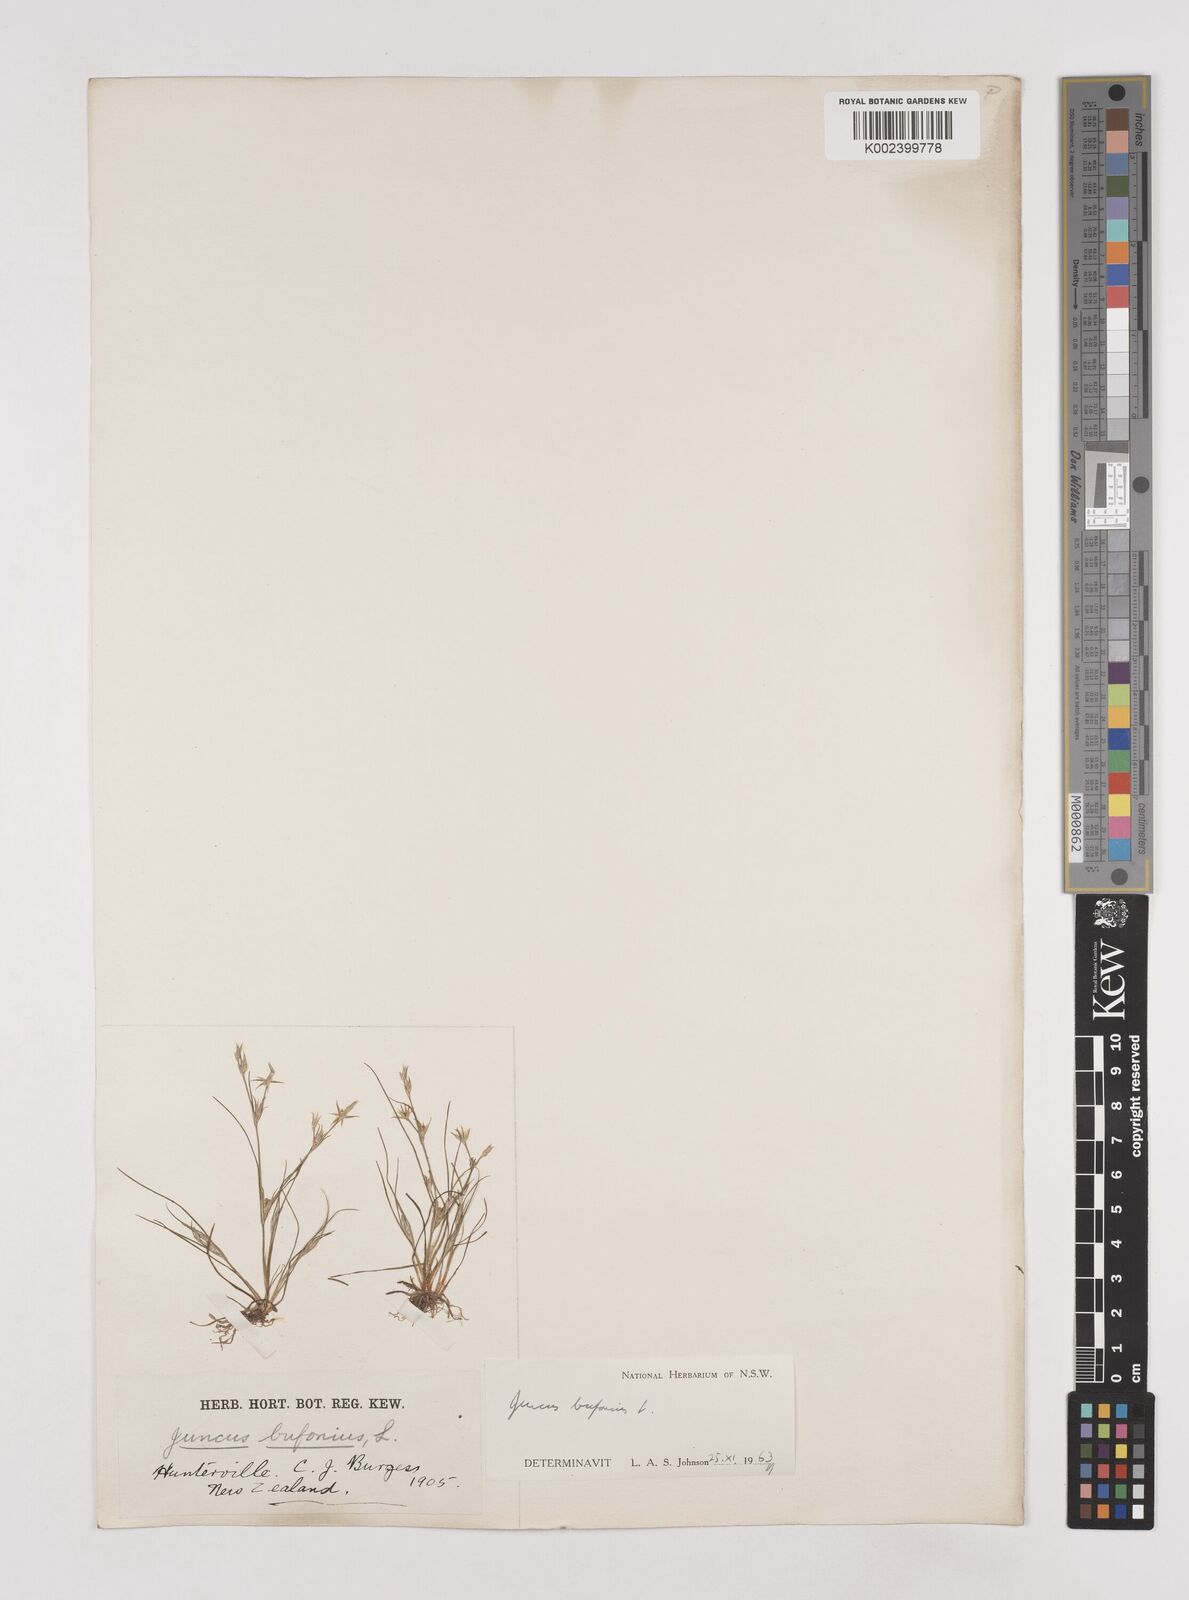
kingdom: Plantae
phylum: Tracheophyta
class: Liliopsida
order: Poales
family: Juncaceae
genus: Juncus
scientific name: Juncus bufonius
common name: Toad rush
